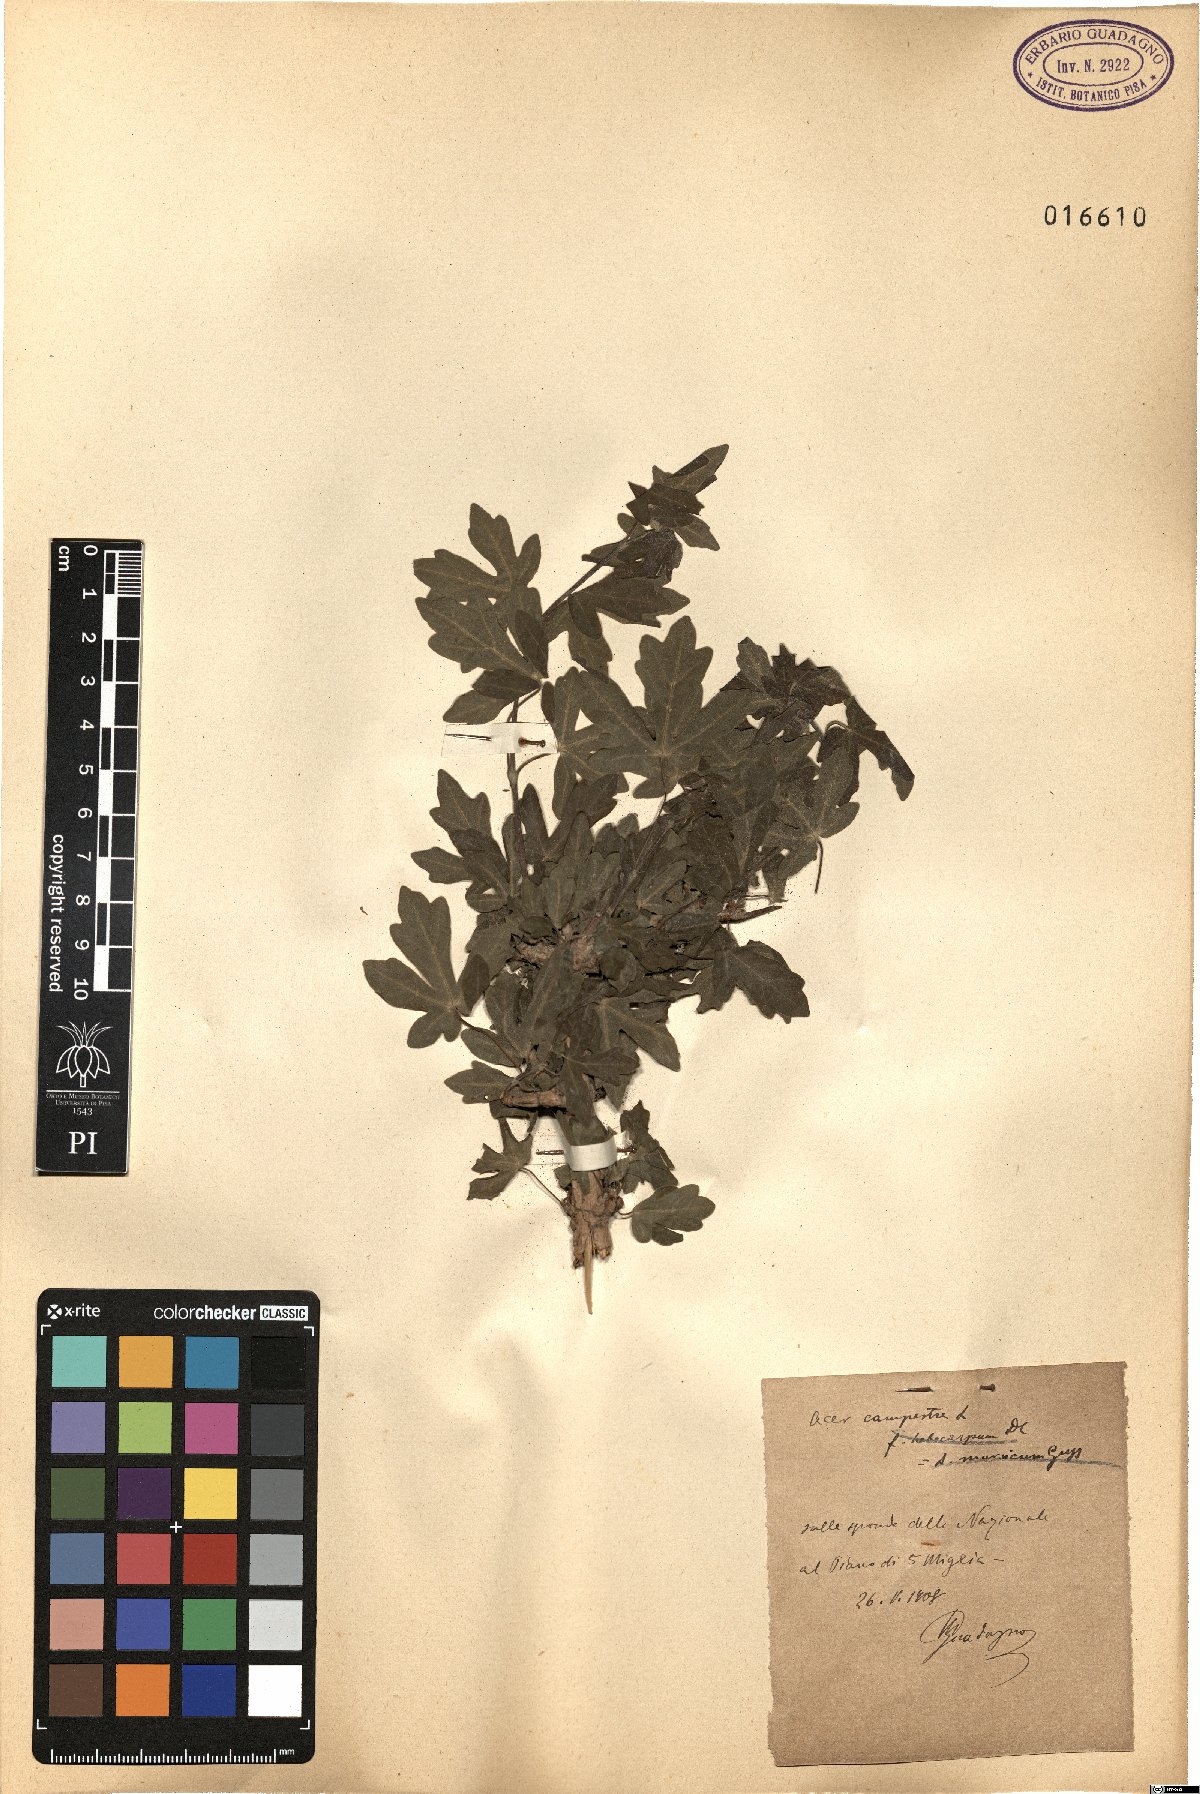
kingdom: Plantae
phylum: Tracheophyta
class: Magnoliopsida
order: Sapindales
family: Sapindaceae
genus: Acer
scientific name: Acer campestre
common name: Field maple
